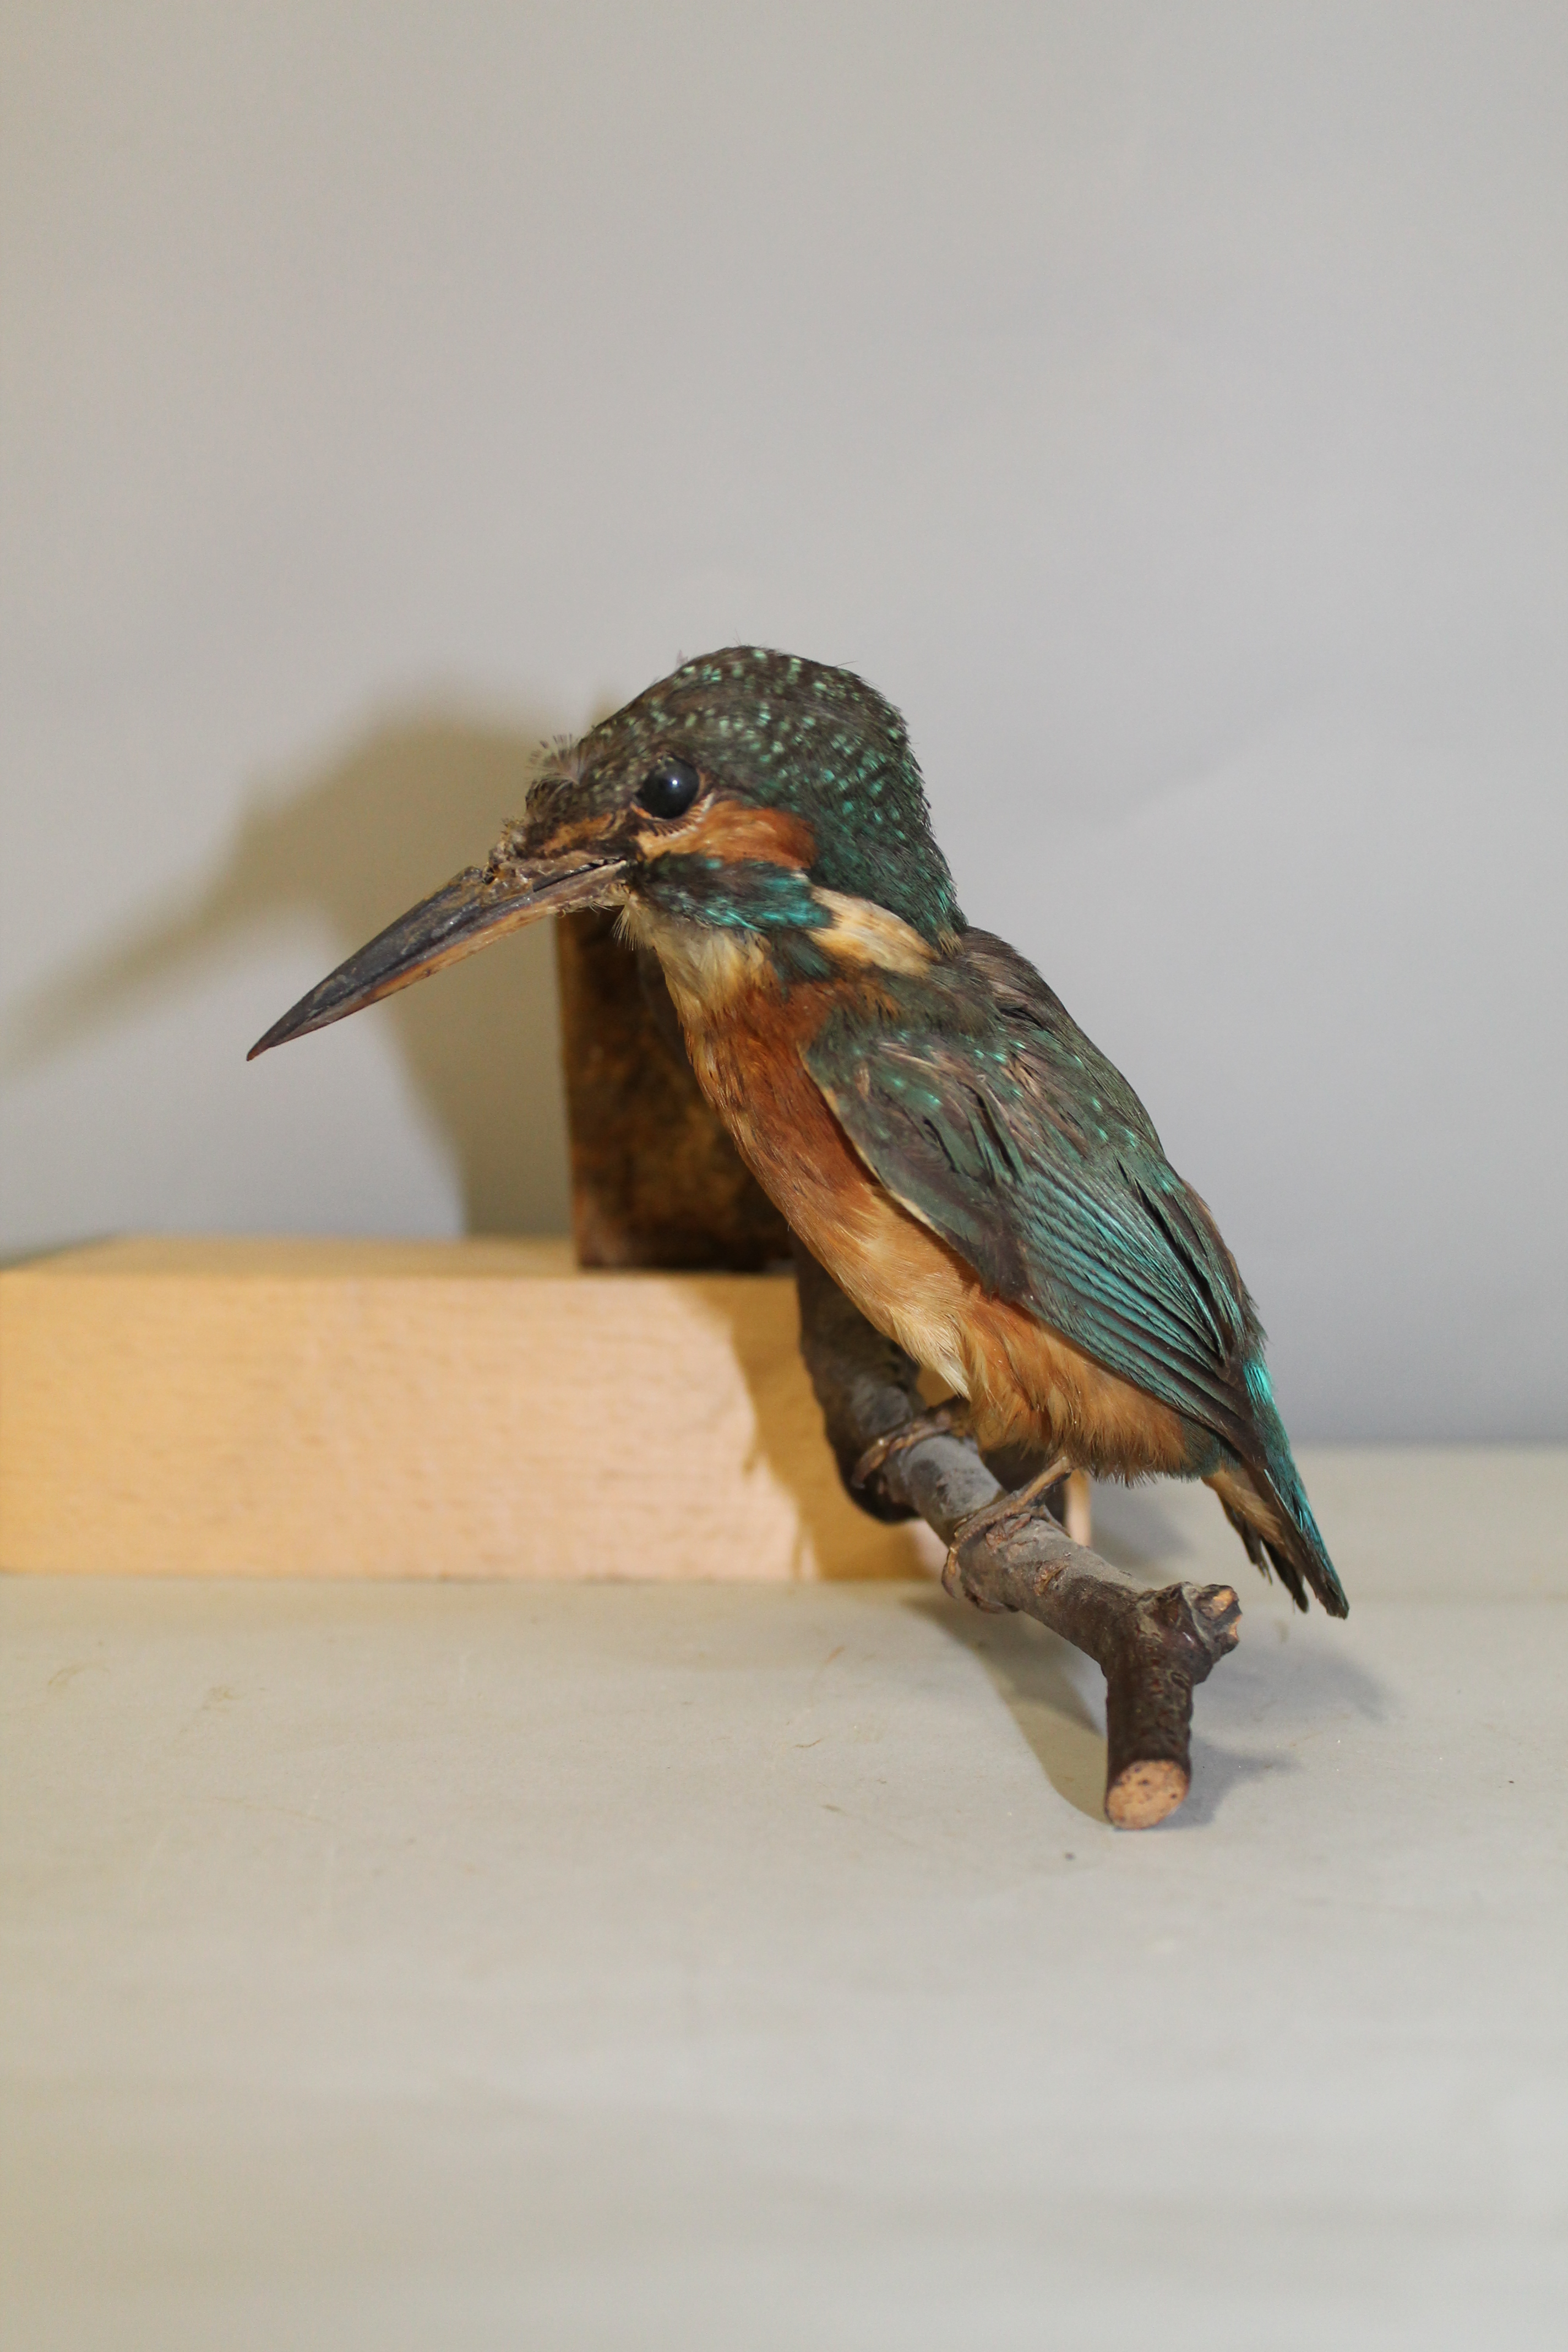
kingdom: Animalia
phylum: Chordata
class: Aves
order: Coraciiformes
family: Alcedinidae
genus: Alcedo
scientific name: Alcedo atthis
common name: Common kingfisher
